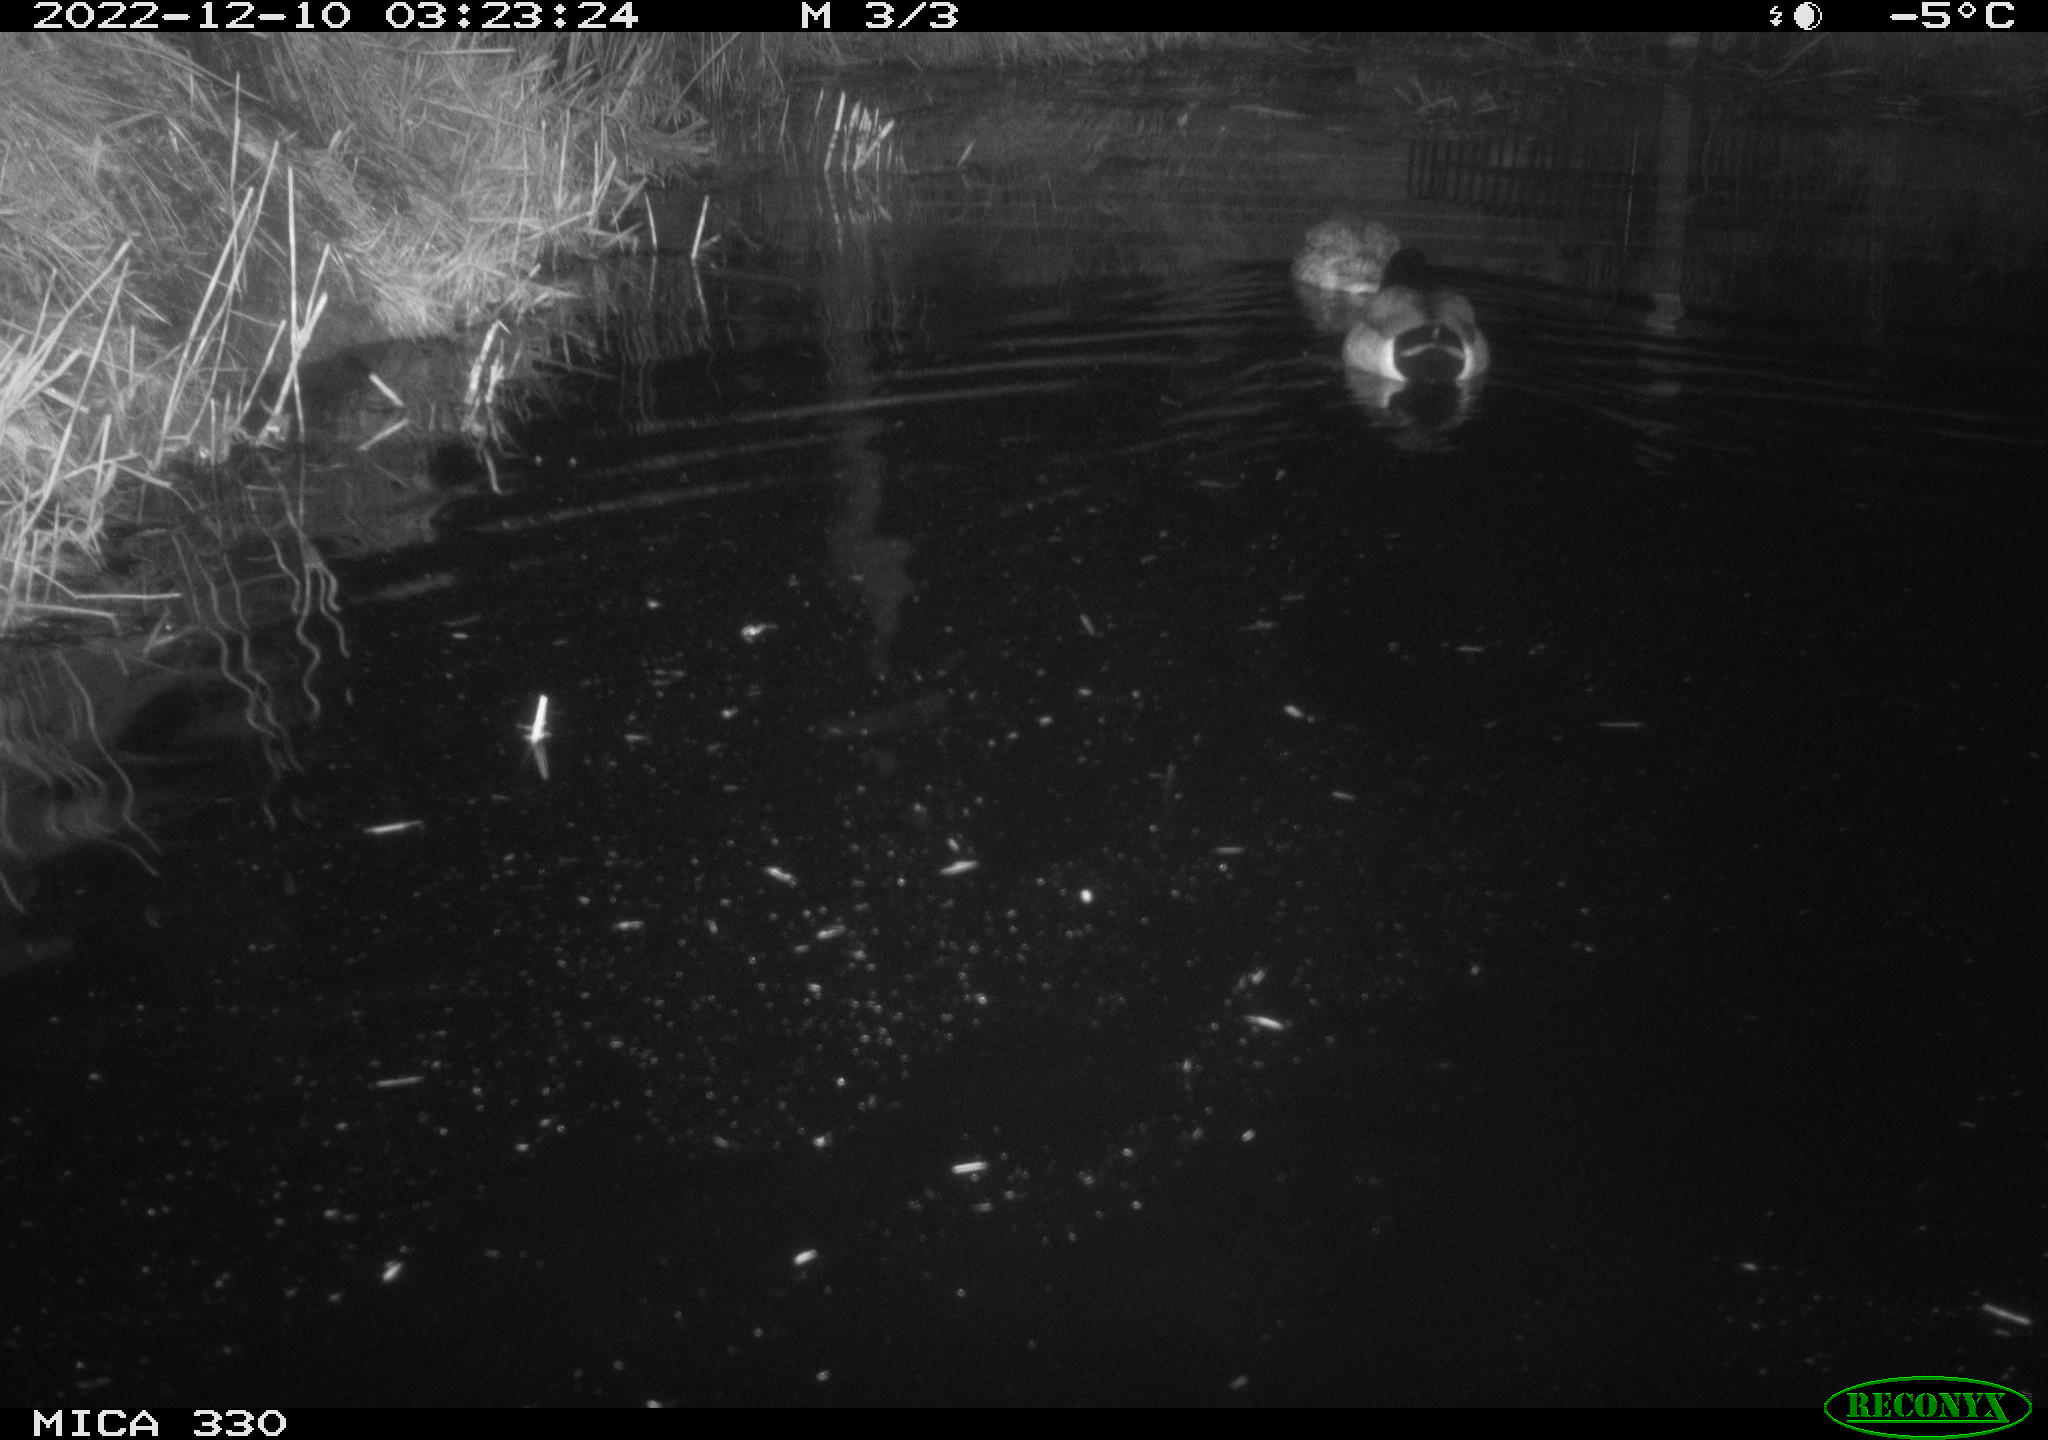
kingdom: Animalia
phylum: Chordata
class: Aves
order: Anseriformes
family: Anatidae
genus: Anas
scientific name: Anas
